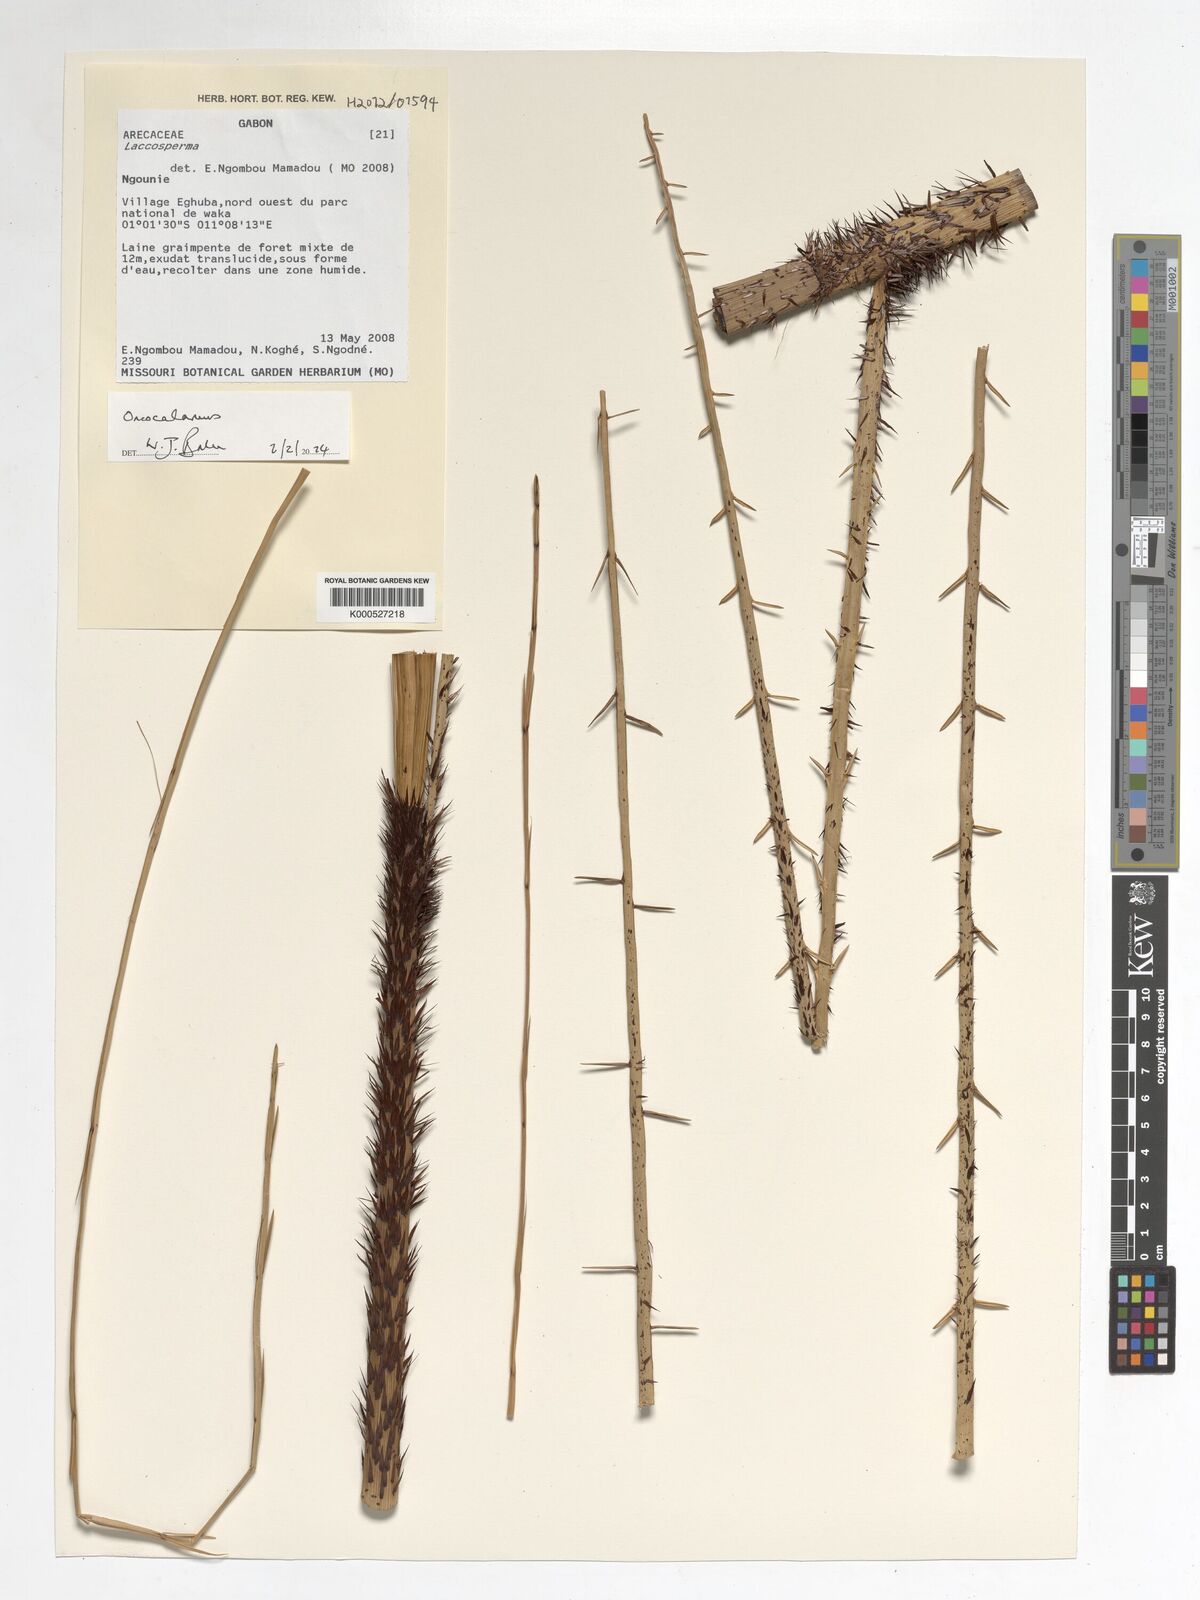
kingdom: Plantae
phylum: Tracheophyta
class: Liliopsida
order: Arecales
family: Arecaceae
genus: Oncocalamus
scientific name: Oncocalamus
